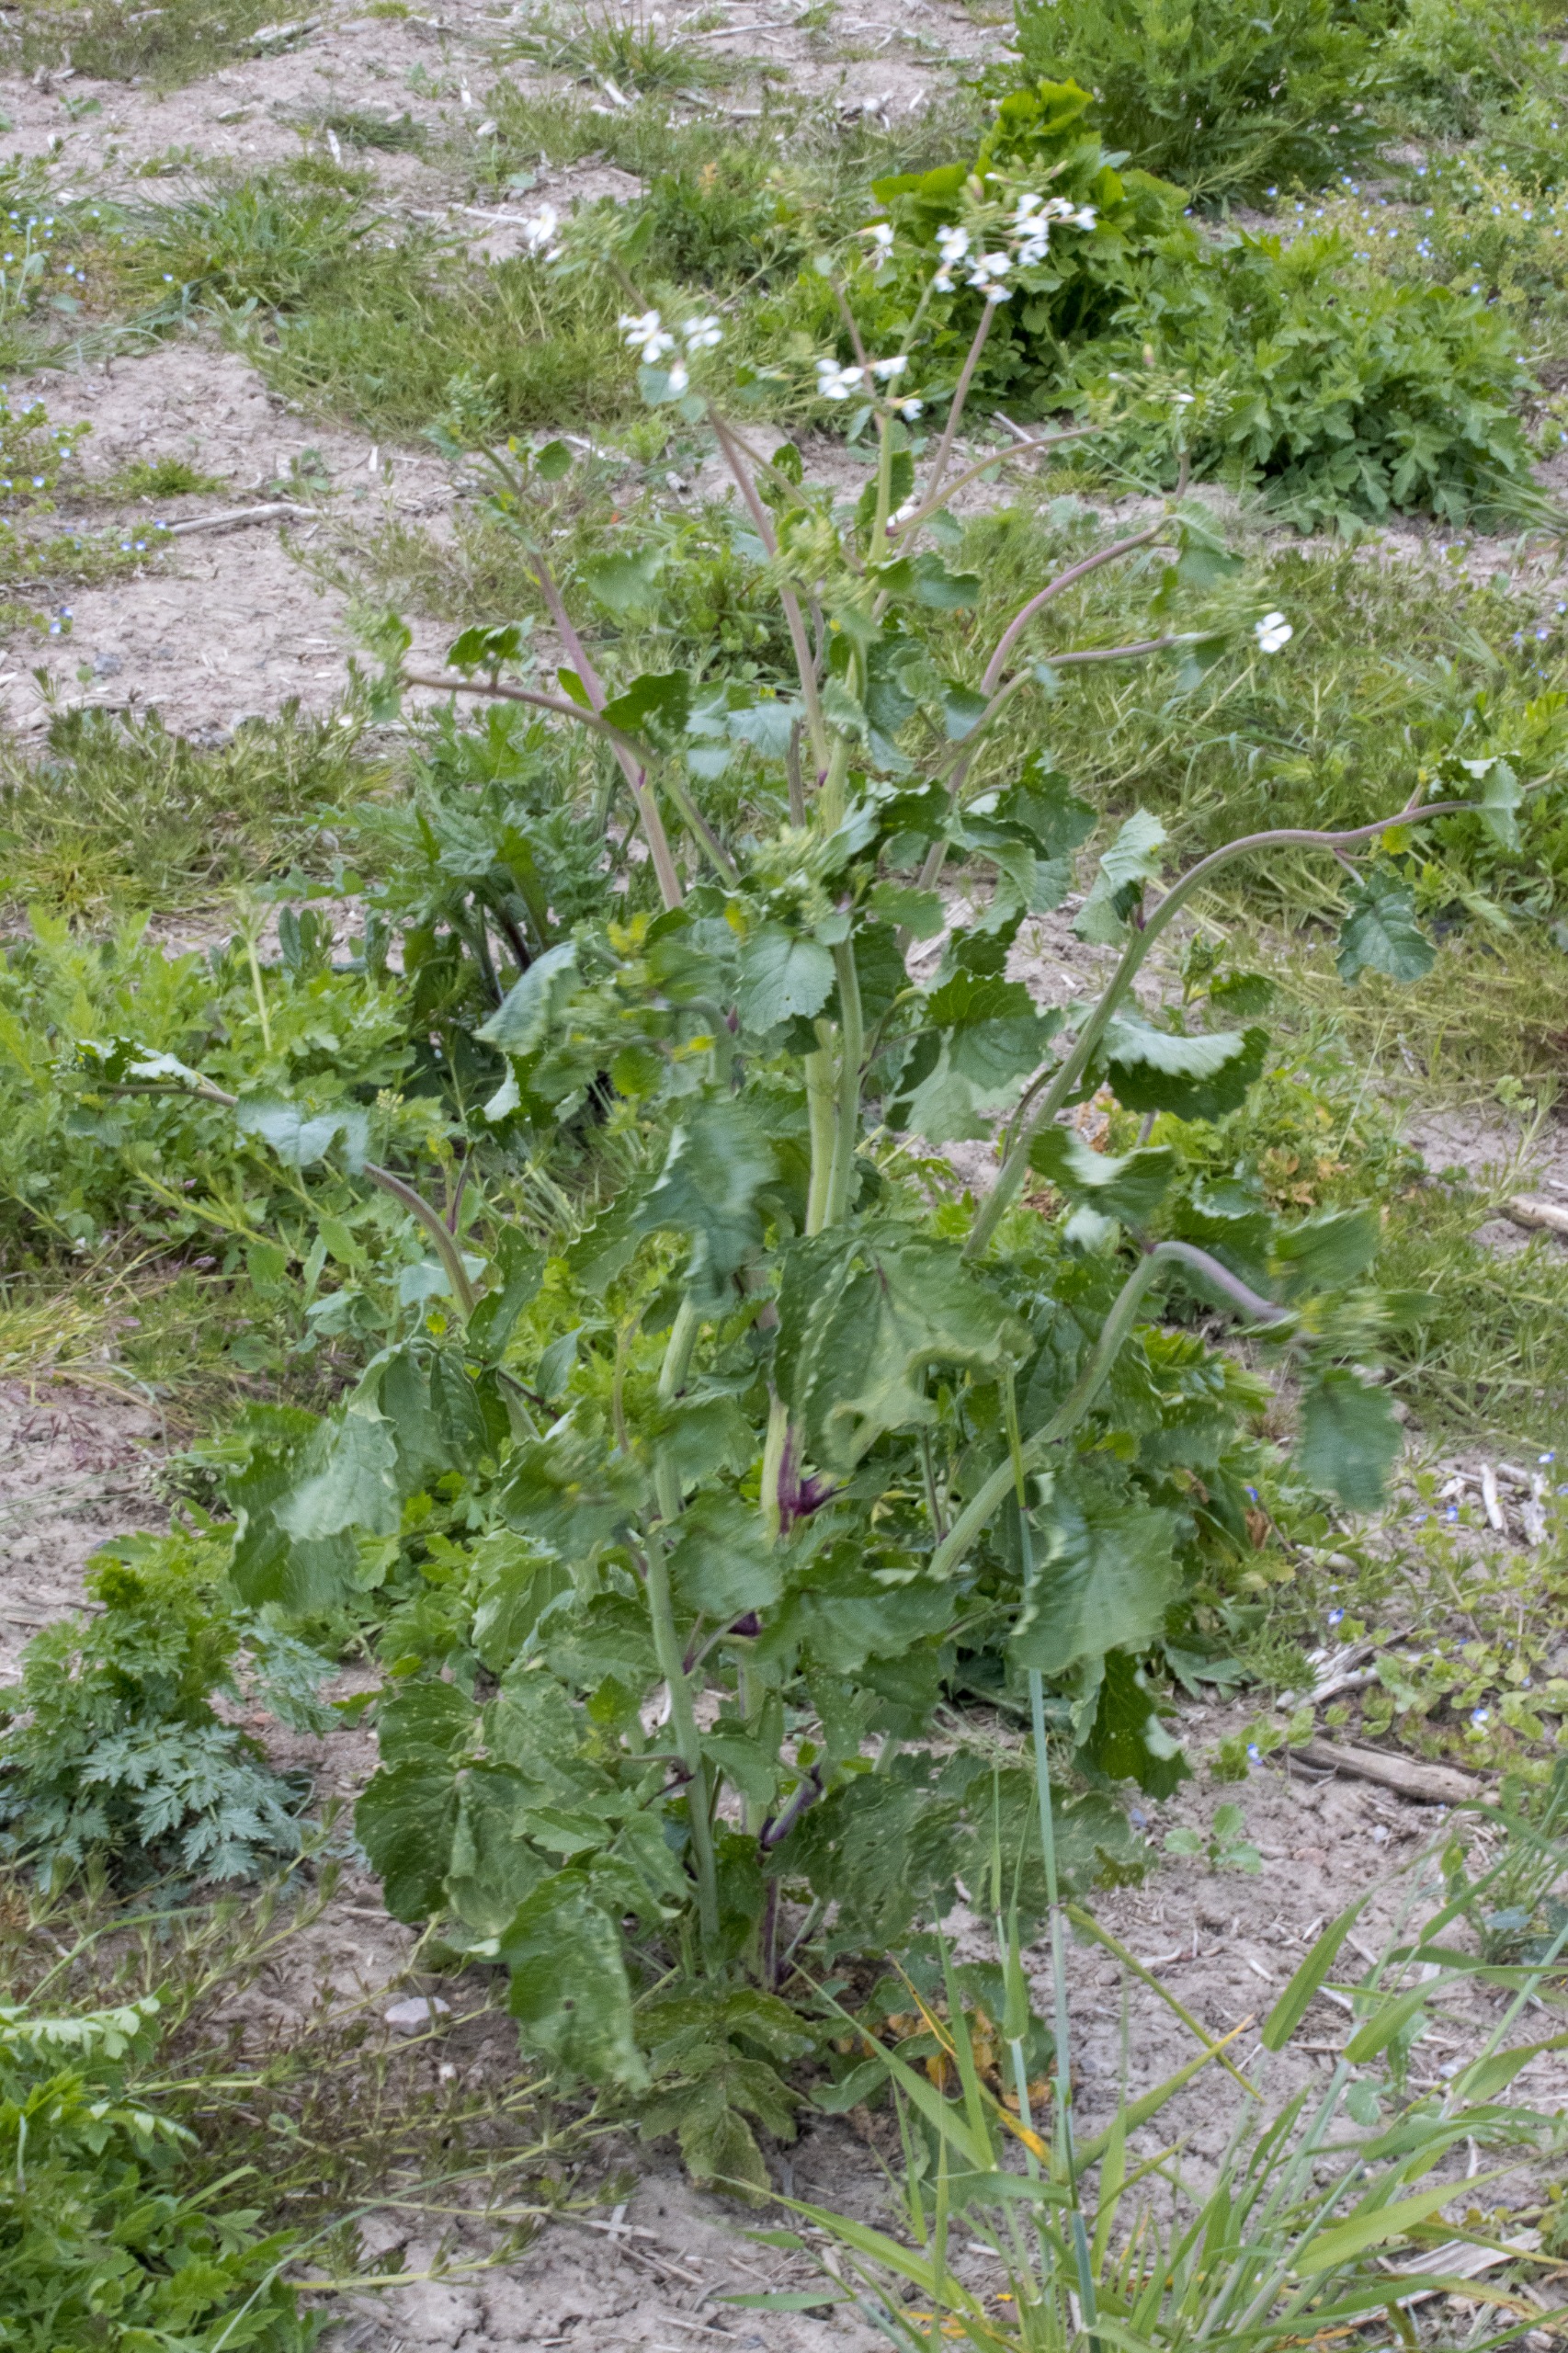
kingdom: Plantae
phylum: Tracheophyta
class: Magnoliopsida
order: Brassicales
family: Brassicaceae
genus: Raphanus
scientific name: Raphanus sativus
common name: Olie-ræddike
